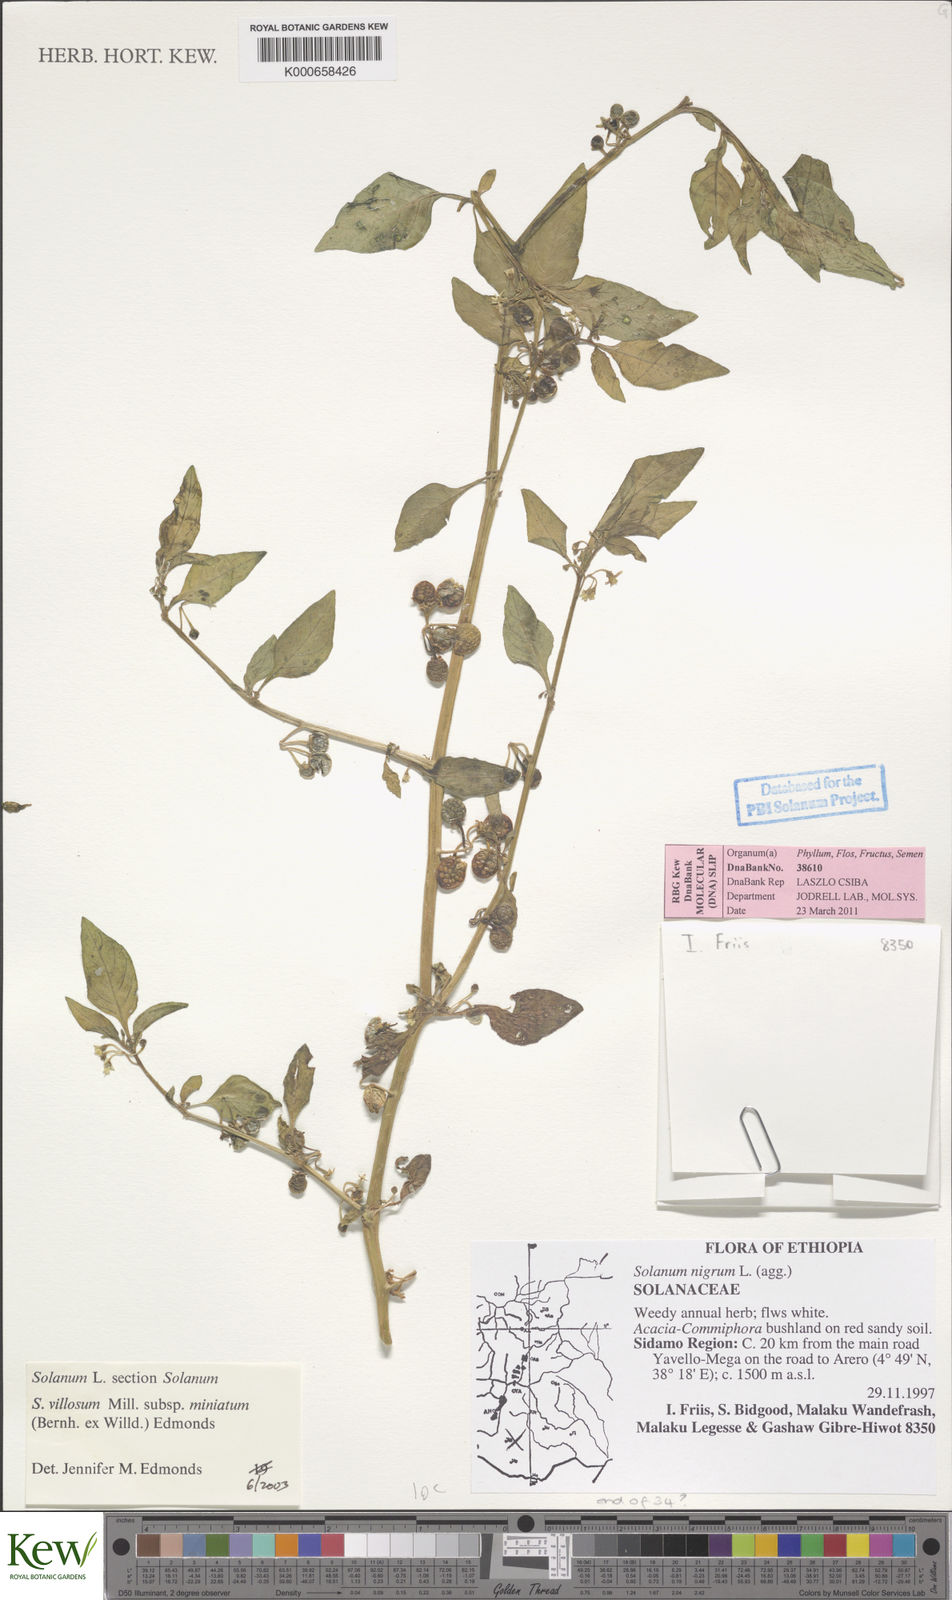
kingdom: Plantae
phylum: Tracheophyta
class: Magnoliopsida
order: Solanales
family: Solanaceae
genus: Solanum
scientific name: Solanum villosum
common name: Red nightshade
